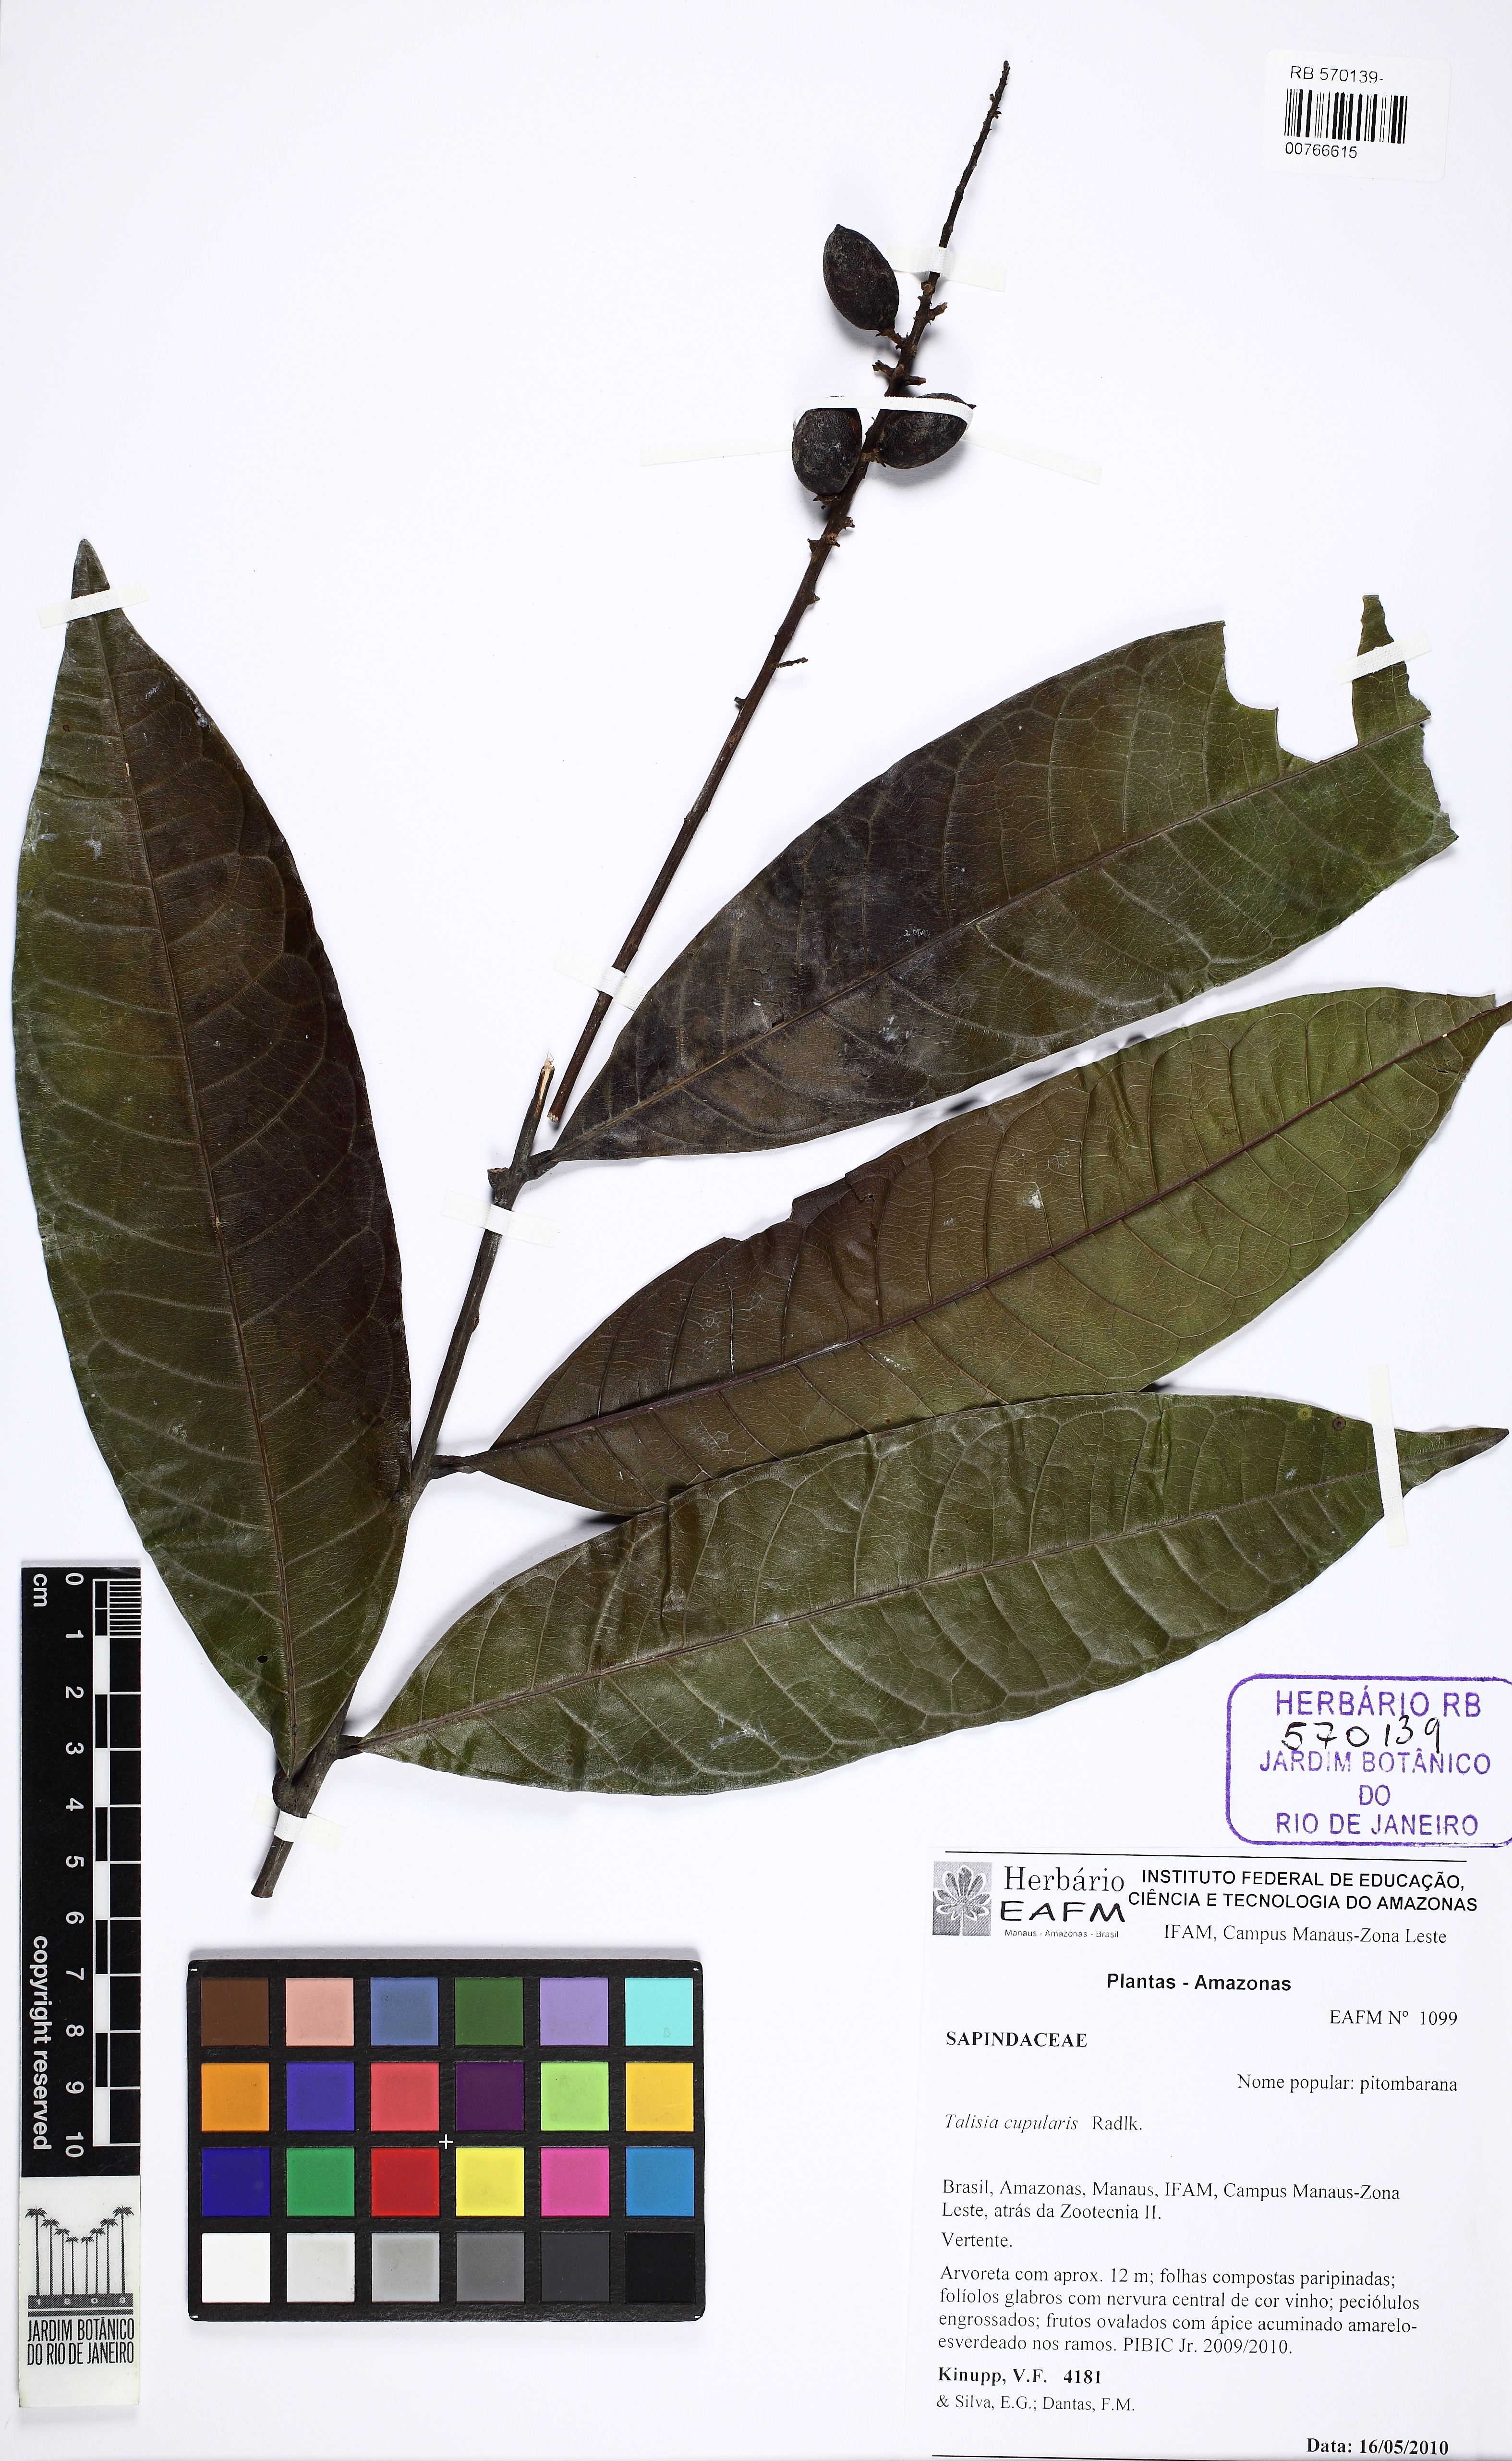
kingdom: Plantae
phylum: Tracheophyta
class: Magnoliopsida
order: Sapindales
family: Sapindaceae
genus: Talisia
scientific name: Talisia cupularis
